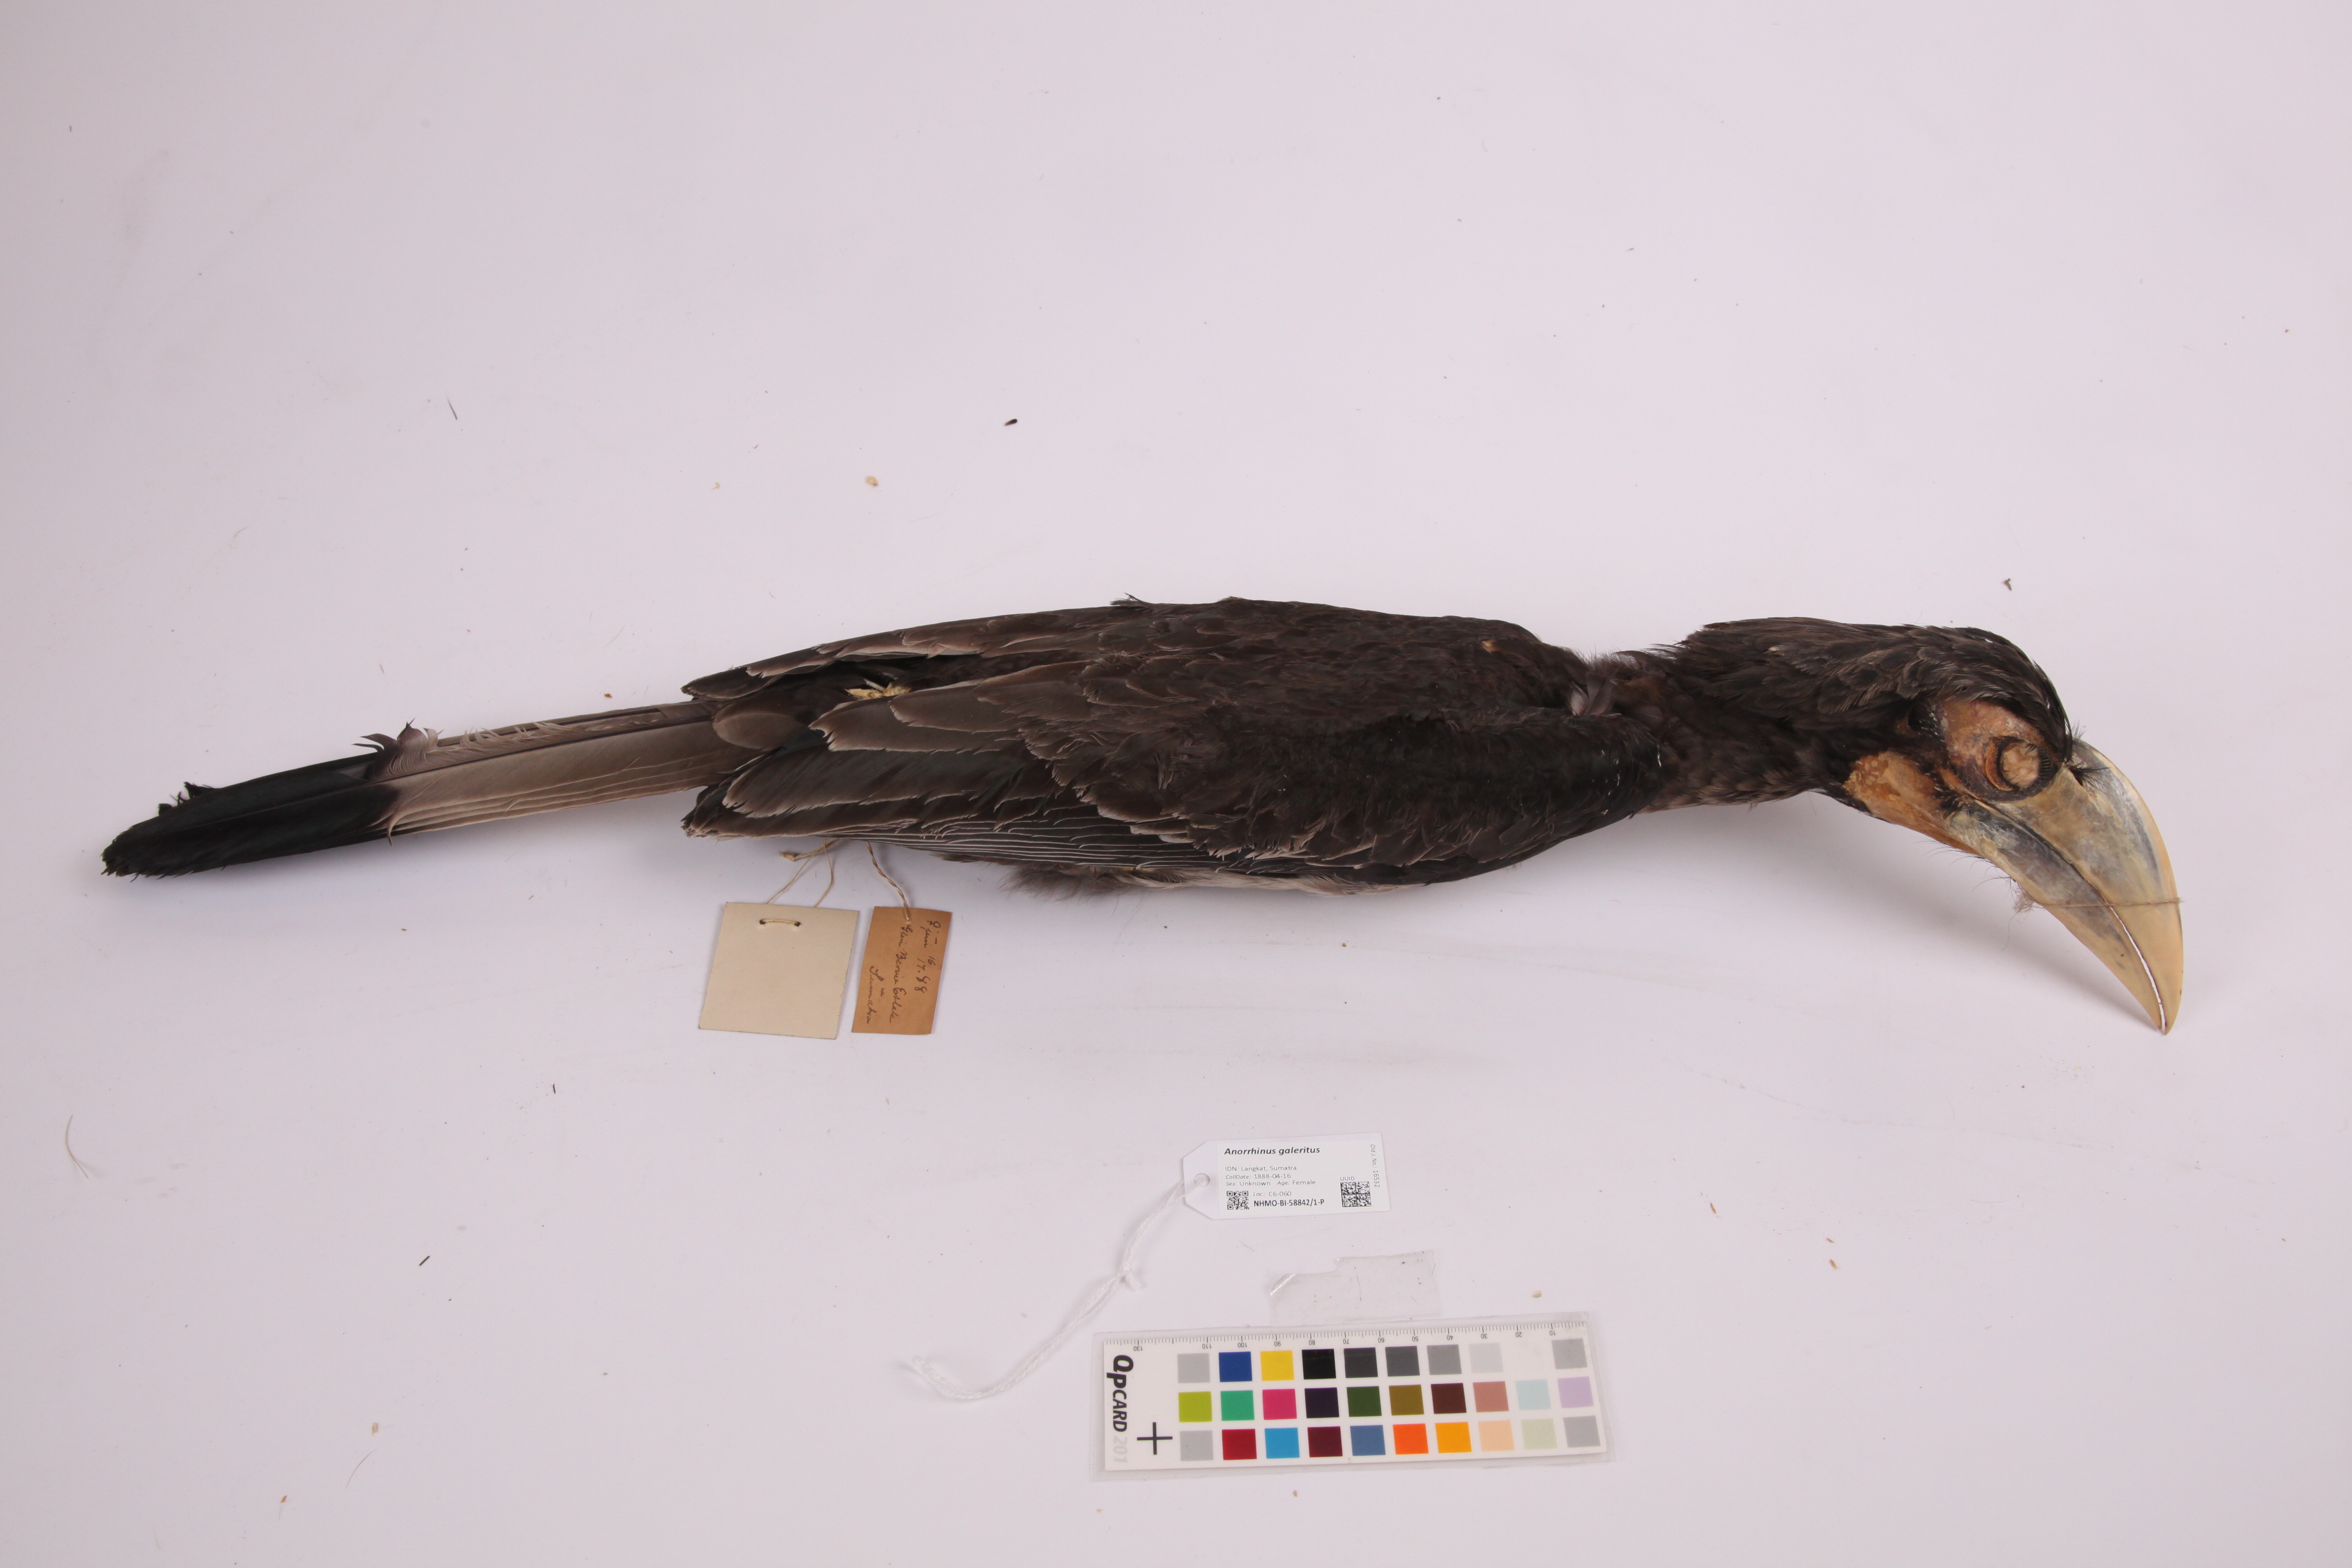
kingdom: Animalia
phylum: Chordata
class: Aves
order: Bucerotiformes
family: Bucerotidae
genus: Anorrhinus
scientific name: Anorrhinus galeritus
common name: Bushy-crested hornbill
